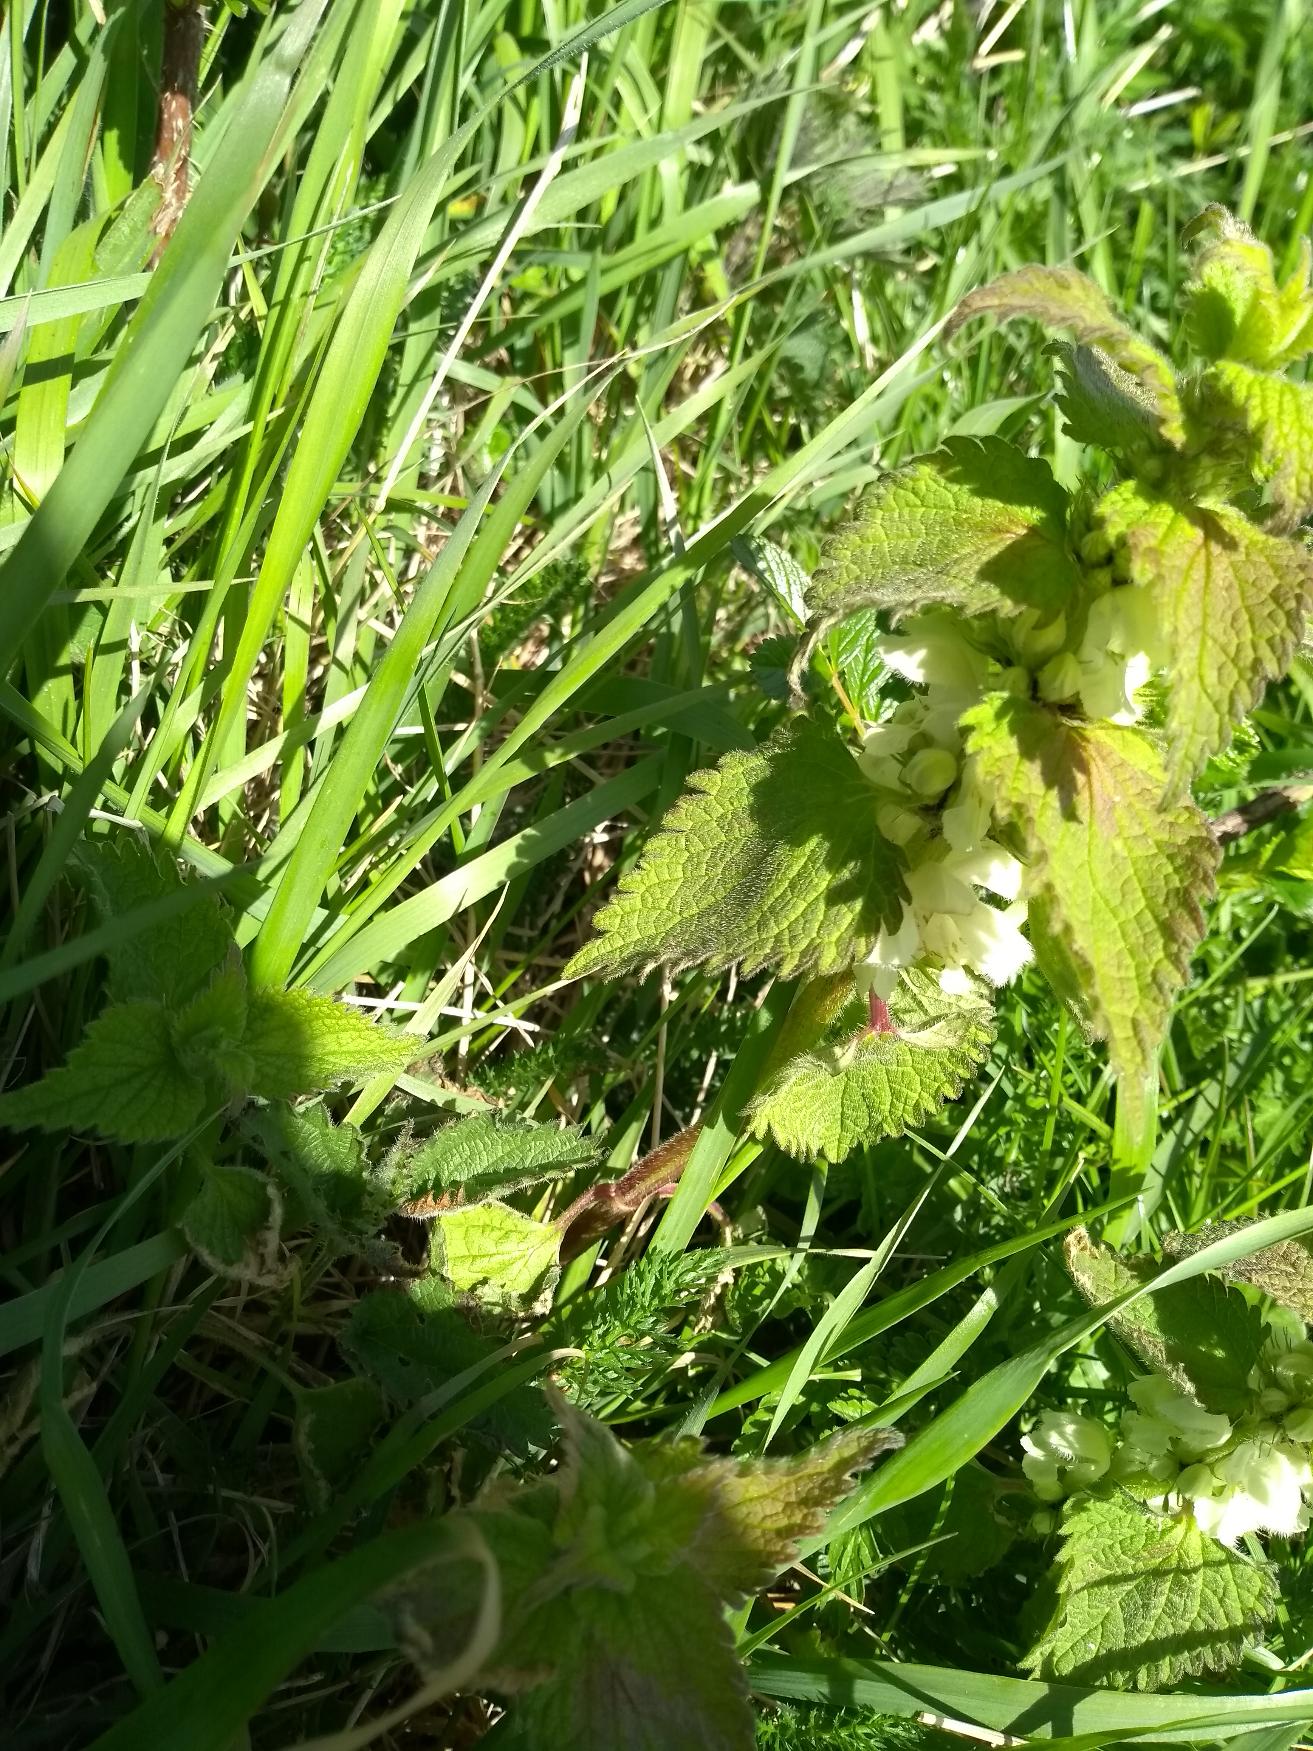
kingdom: Plantae
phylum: Tracheophyta
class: Magnoliopsida
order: Lamiales
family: Lamiaceae
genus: Lamium
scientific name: Lamium album
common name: Døvnælde
